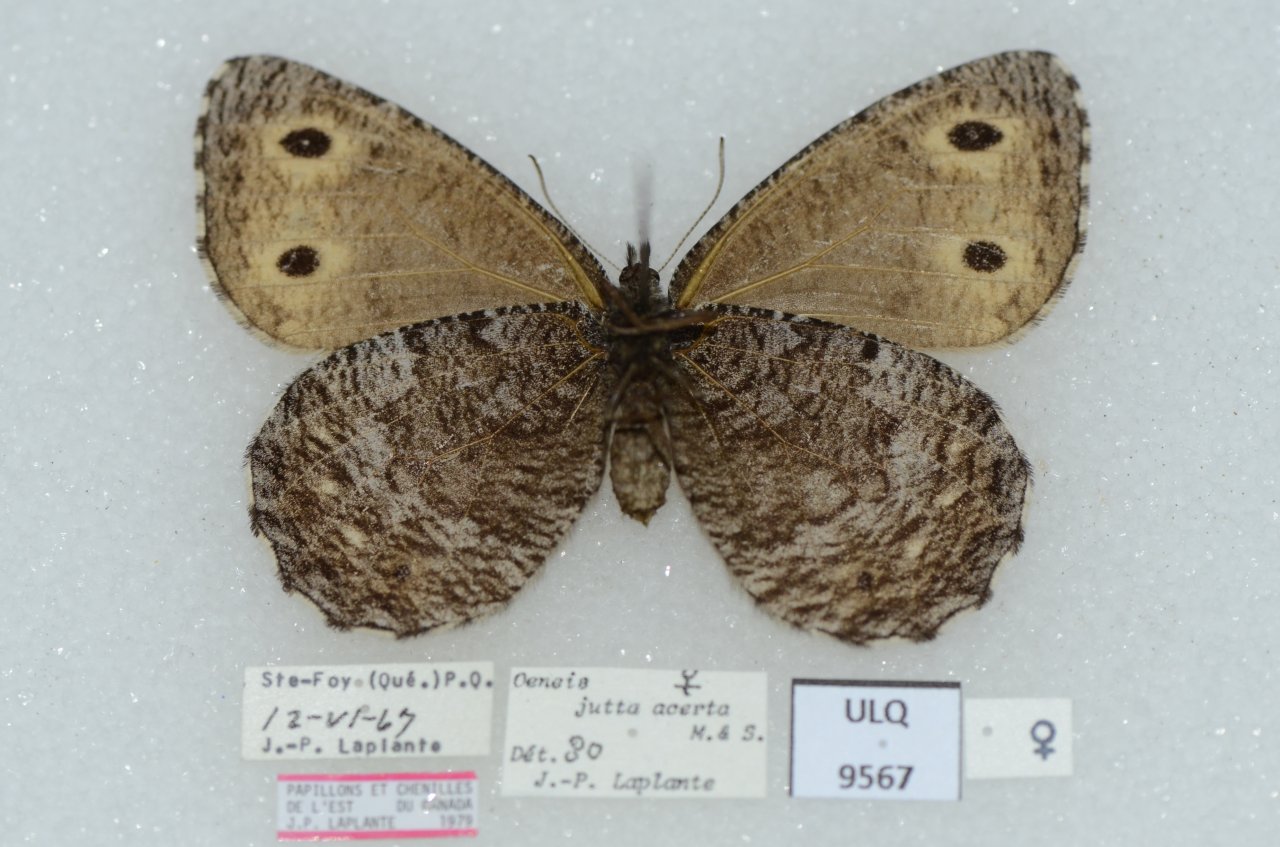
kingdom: Animalia
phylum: Arthropoda
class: Insecta
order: Lepidoptera
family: Nymphalidae
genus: Oeneis
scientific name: Oeneis jutta
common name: Jutta Arctic
